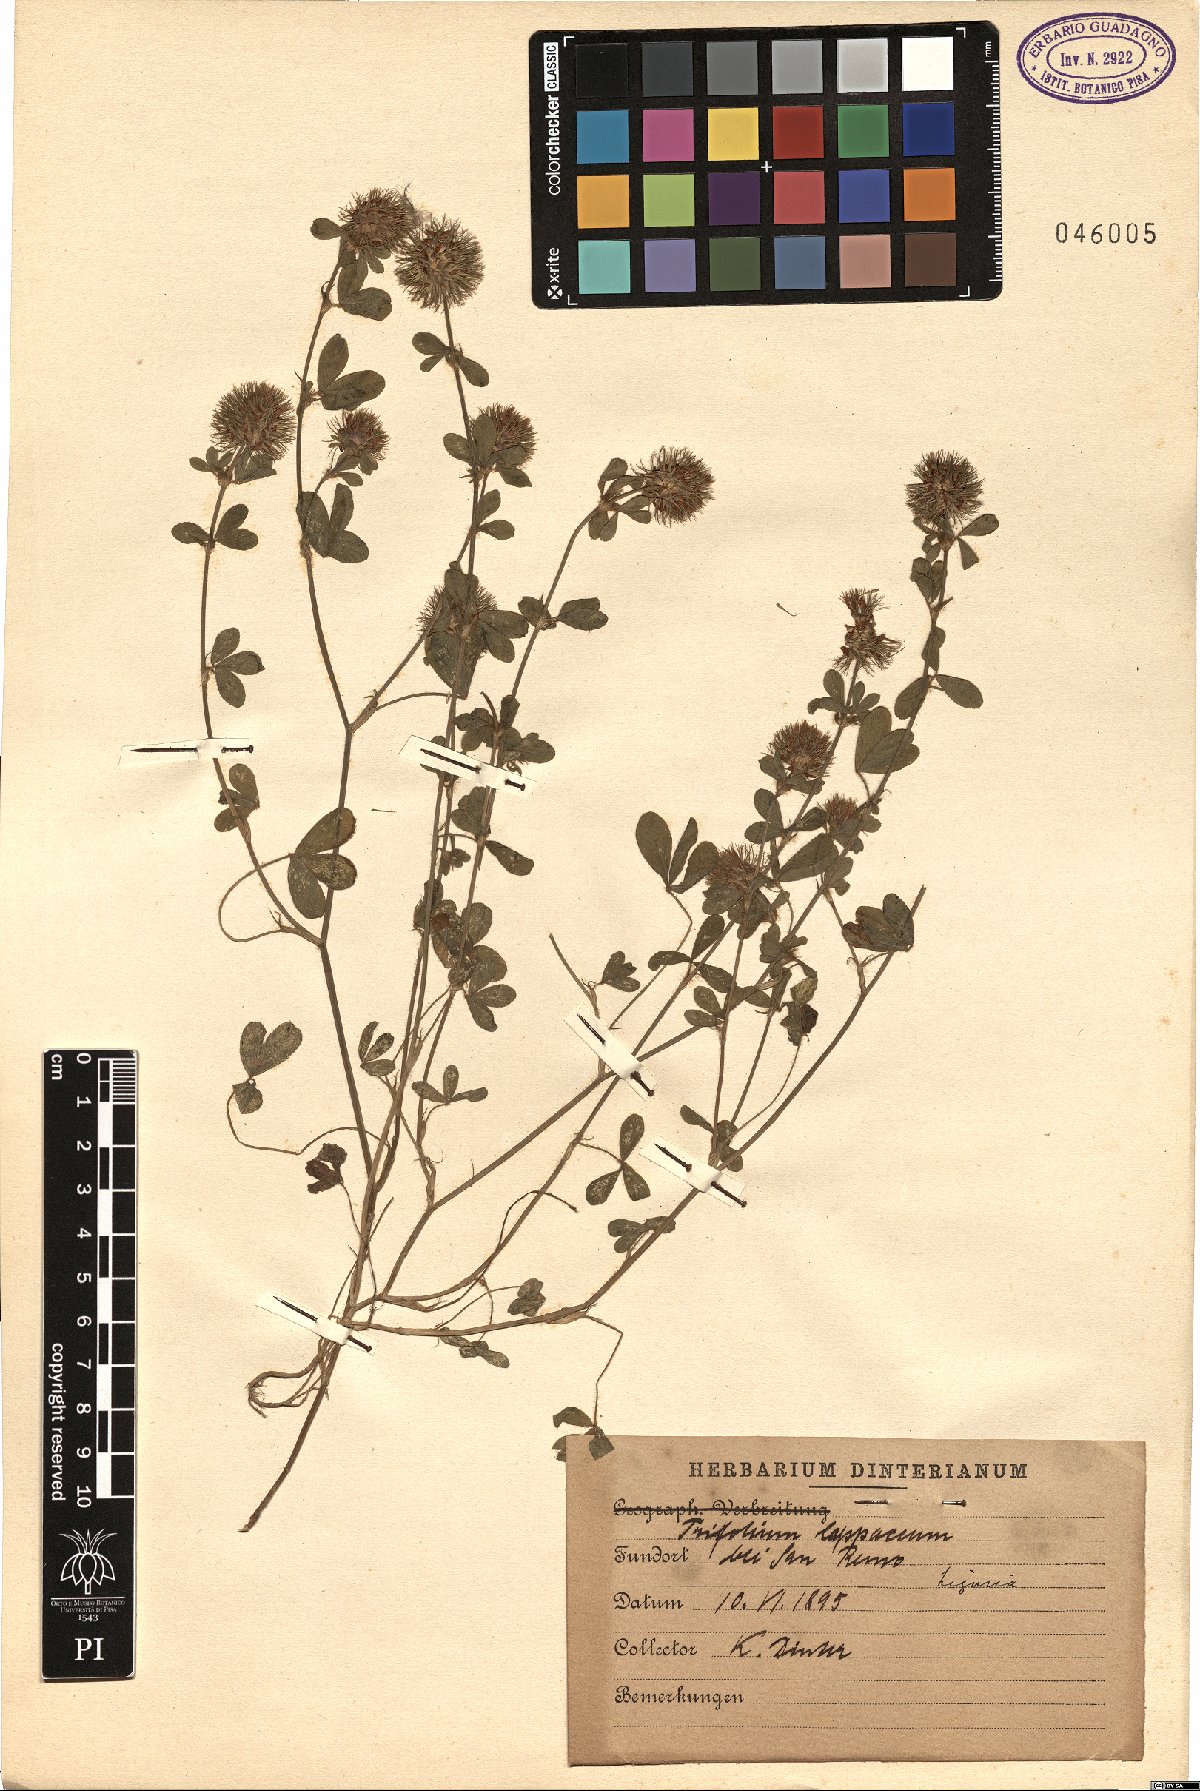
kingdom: Plantae
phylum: Tracheophyta
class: Magnoliopsida
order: Fabales
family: Fabaceae
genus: Trifolium
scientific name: Trifolium lappaceum
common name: Bur clover
